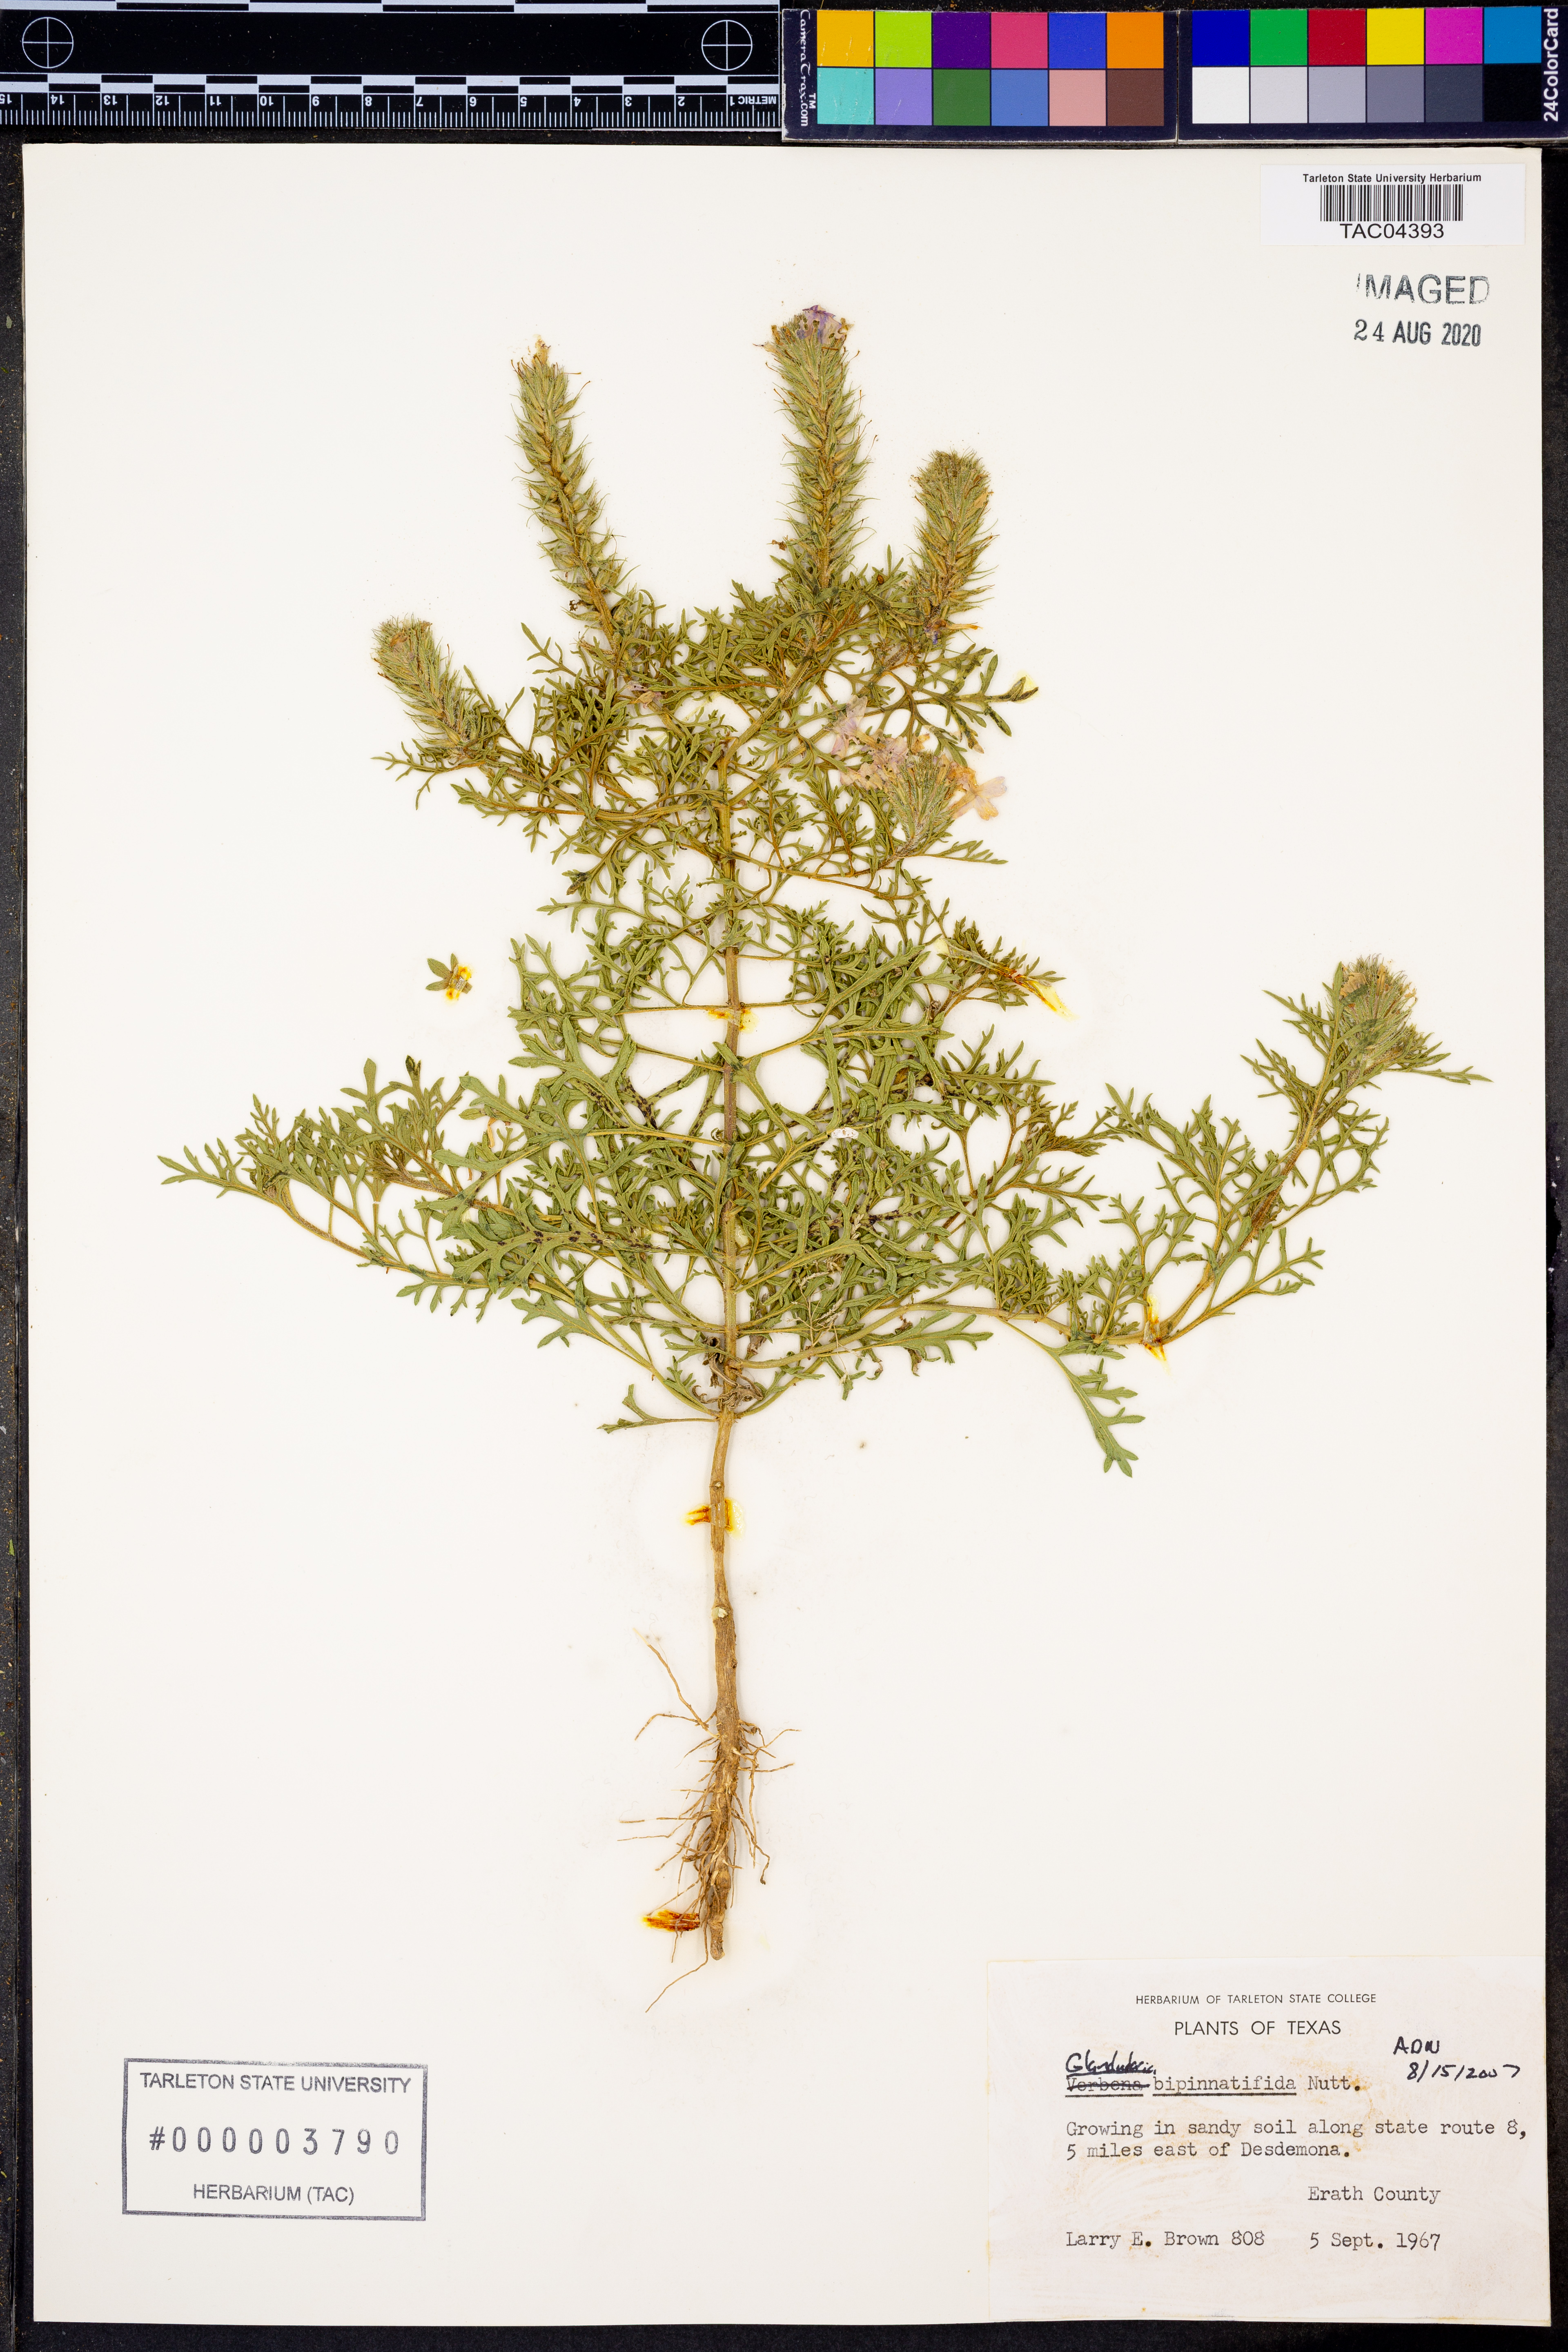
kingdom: Plantae
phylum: Tracheophyta
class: Magnoliopsida
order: Lamiales
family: Verbenaceae
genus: Verbena
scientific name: Verbena bipinnatifida
